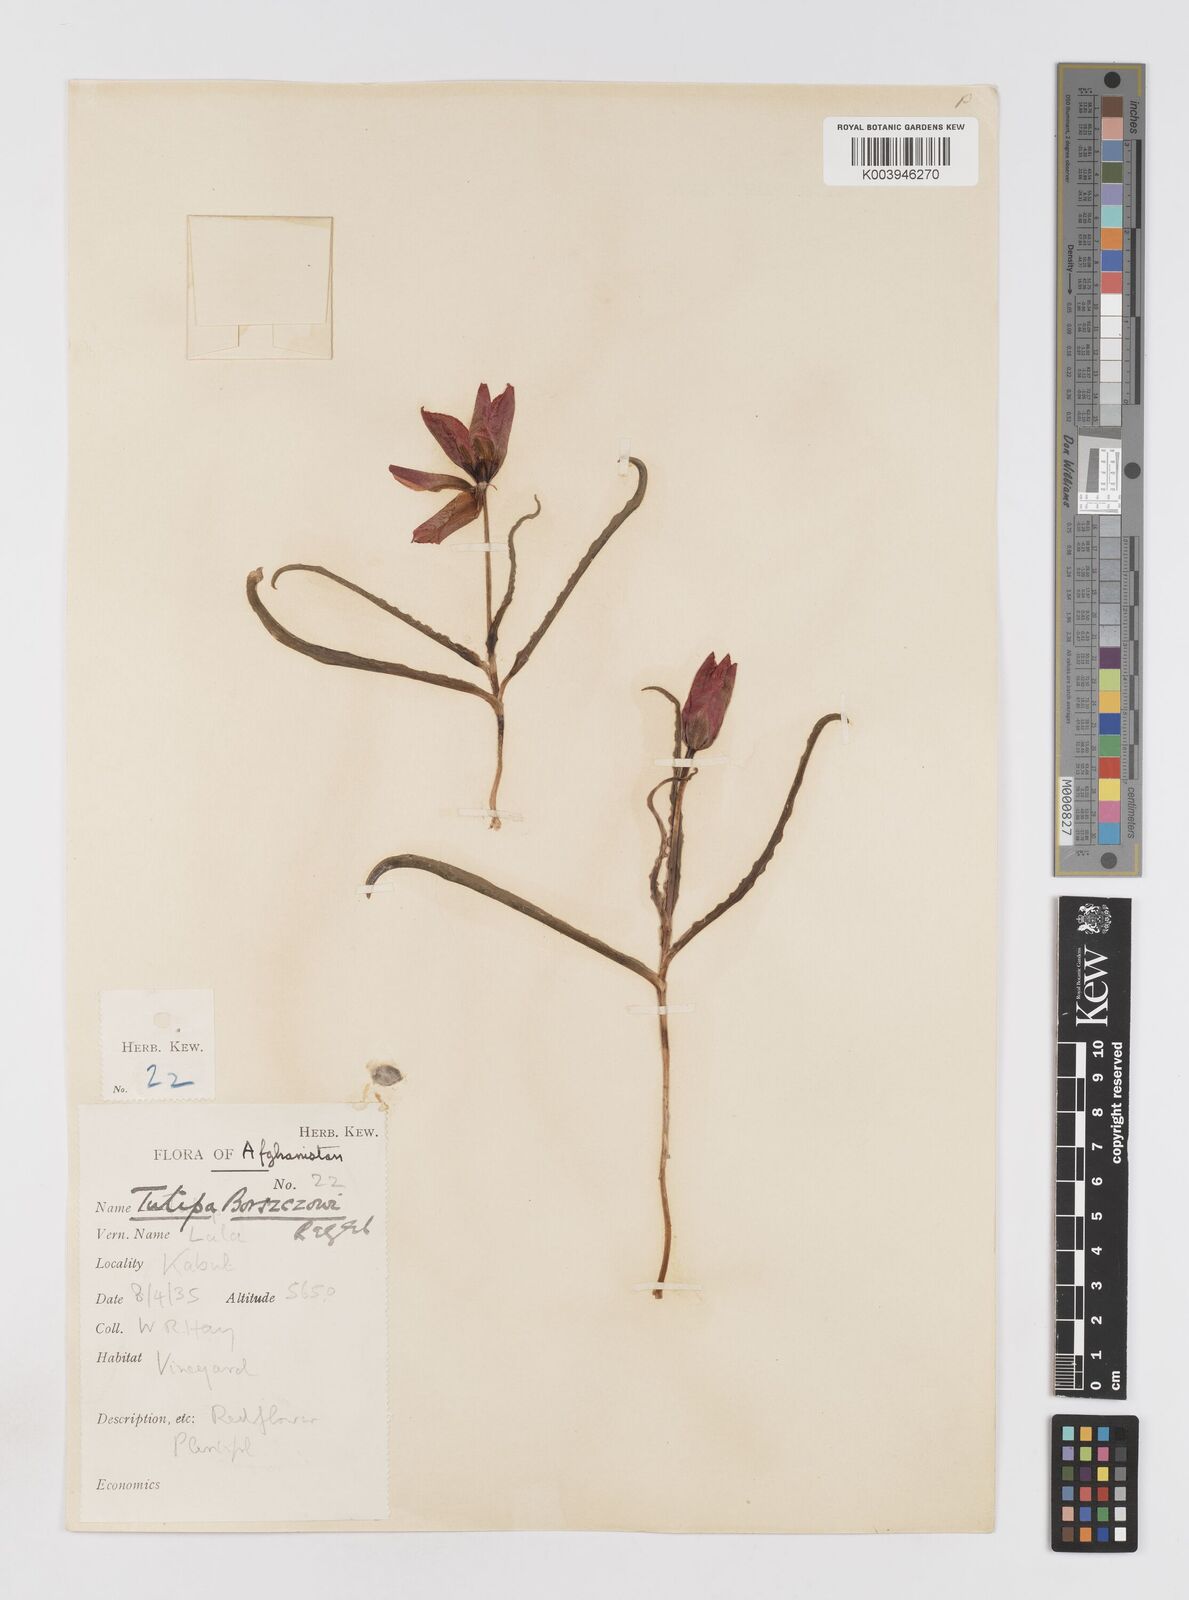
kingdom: Plantae
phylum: Tracheophyta
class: Liliopsida
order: Liliales
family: Liliaceae
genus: Tulipa
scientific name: Tulipa clusiana
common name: Lady tulip
